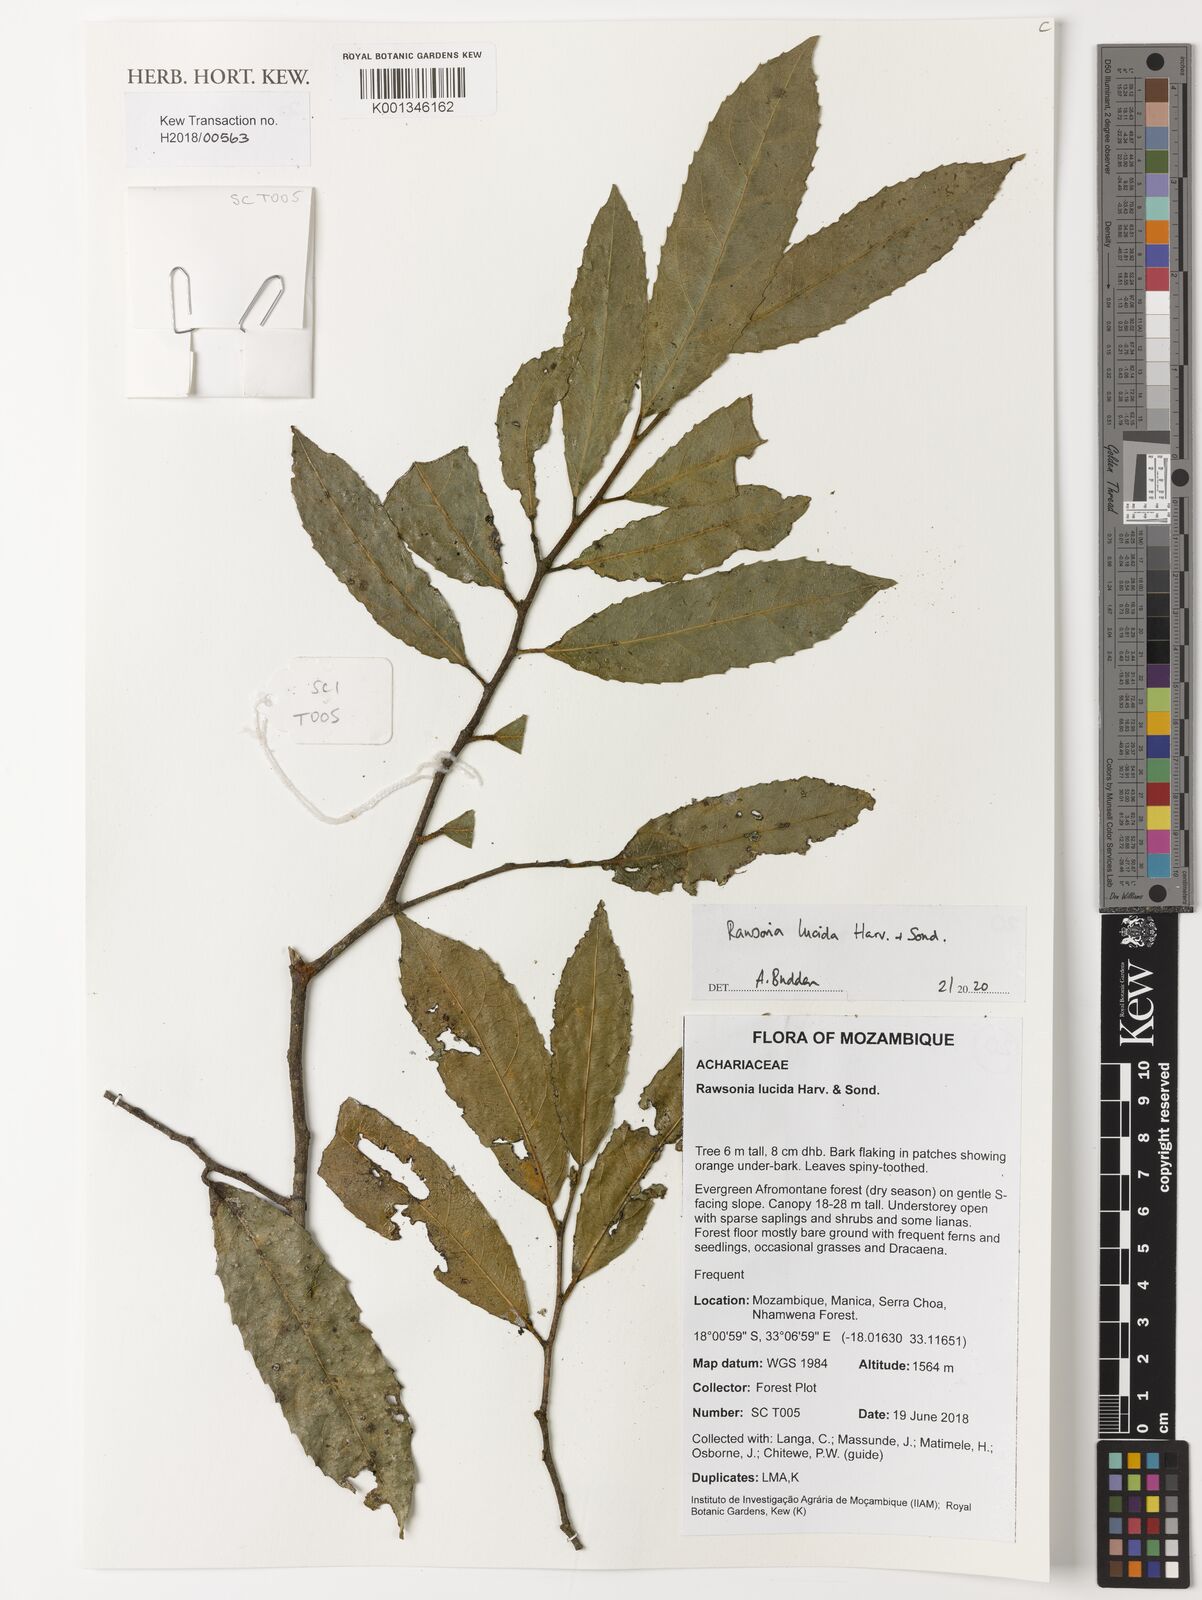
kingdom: Plantae
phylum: Tracheophyta
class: Magnoliopsida
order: Malpighiales
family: Achariaceae
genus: Rawsonia
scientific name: Rawsonia lucida
